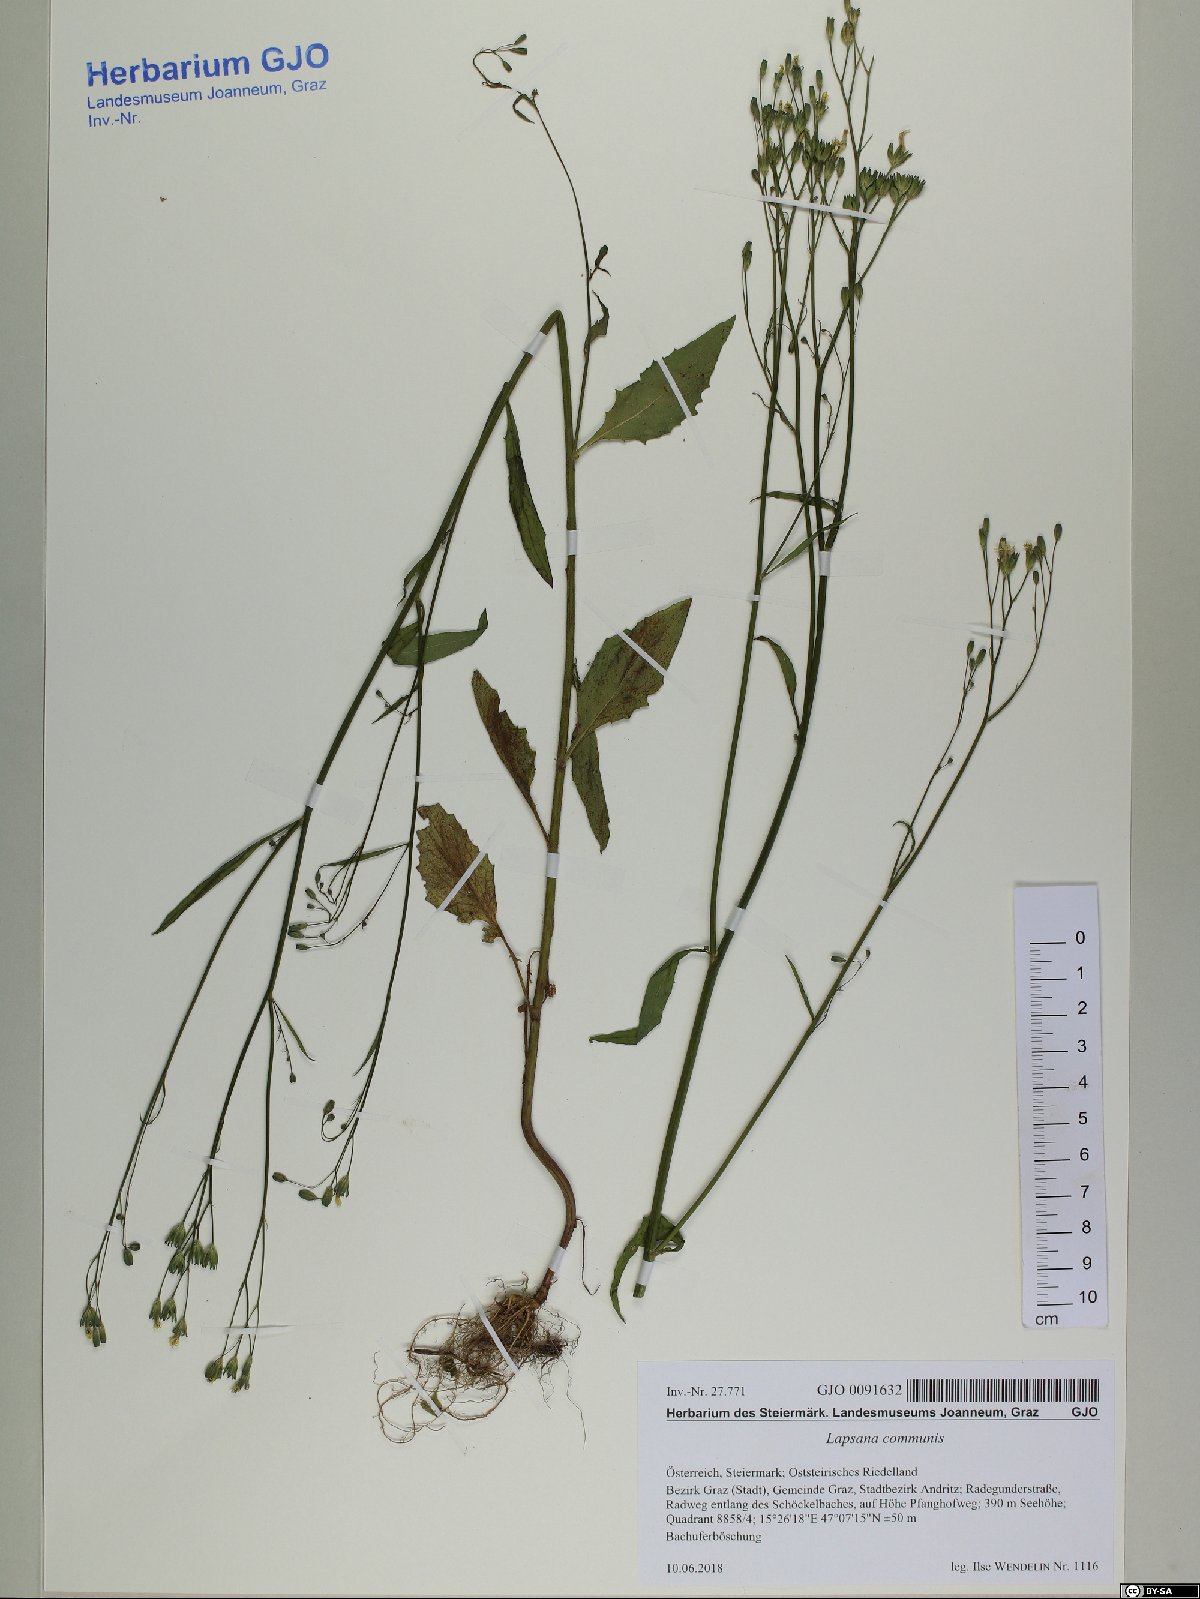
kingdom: Plantae
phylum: Tracheophyta
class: Magnoliopsida
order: Asterales
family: Asteraceae
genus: Lapsana
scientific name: Lapsana communis
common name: Nipplewort
